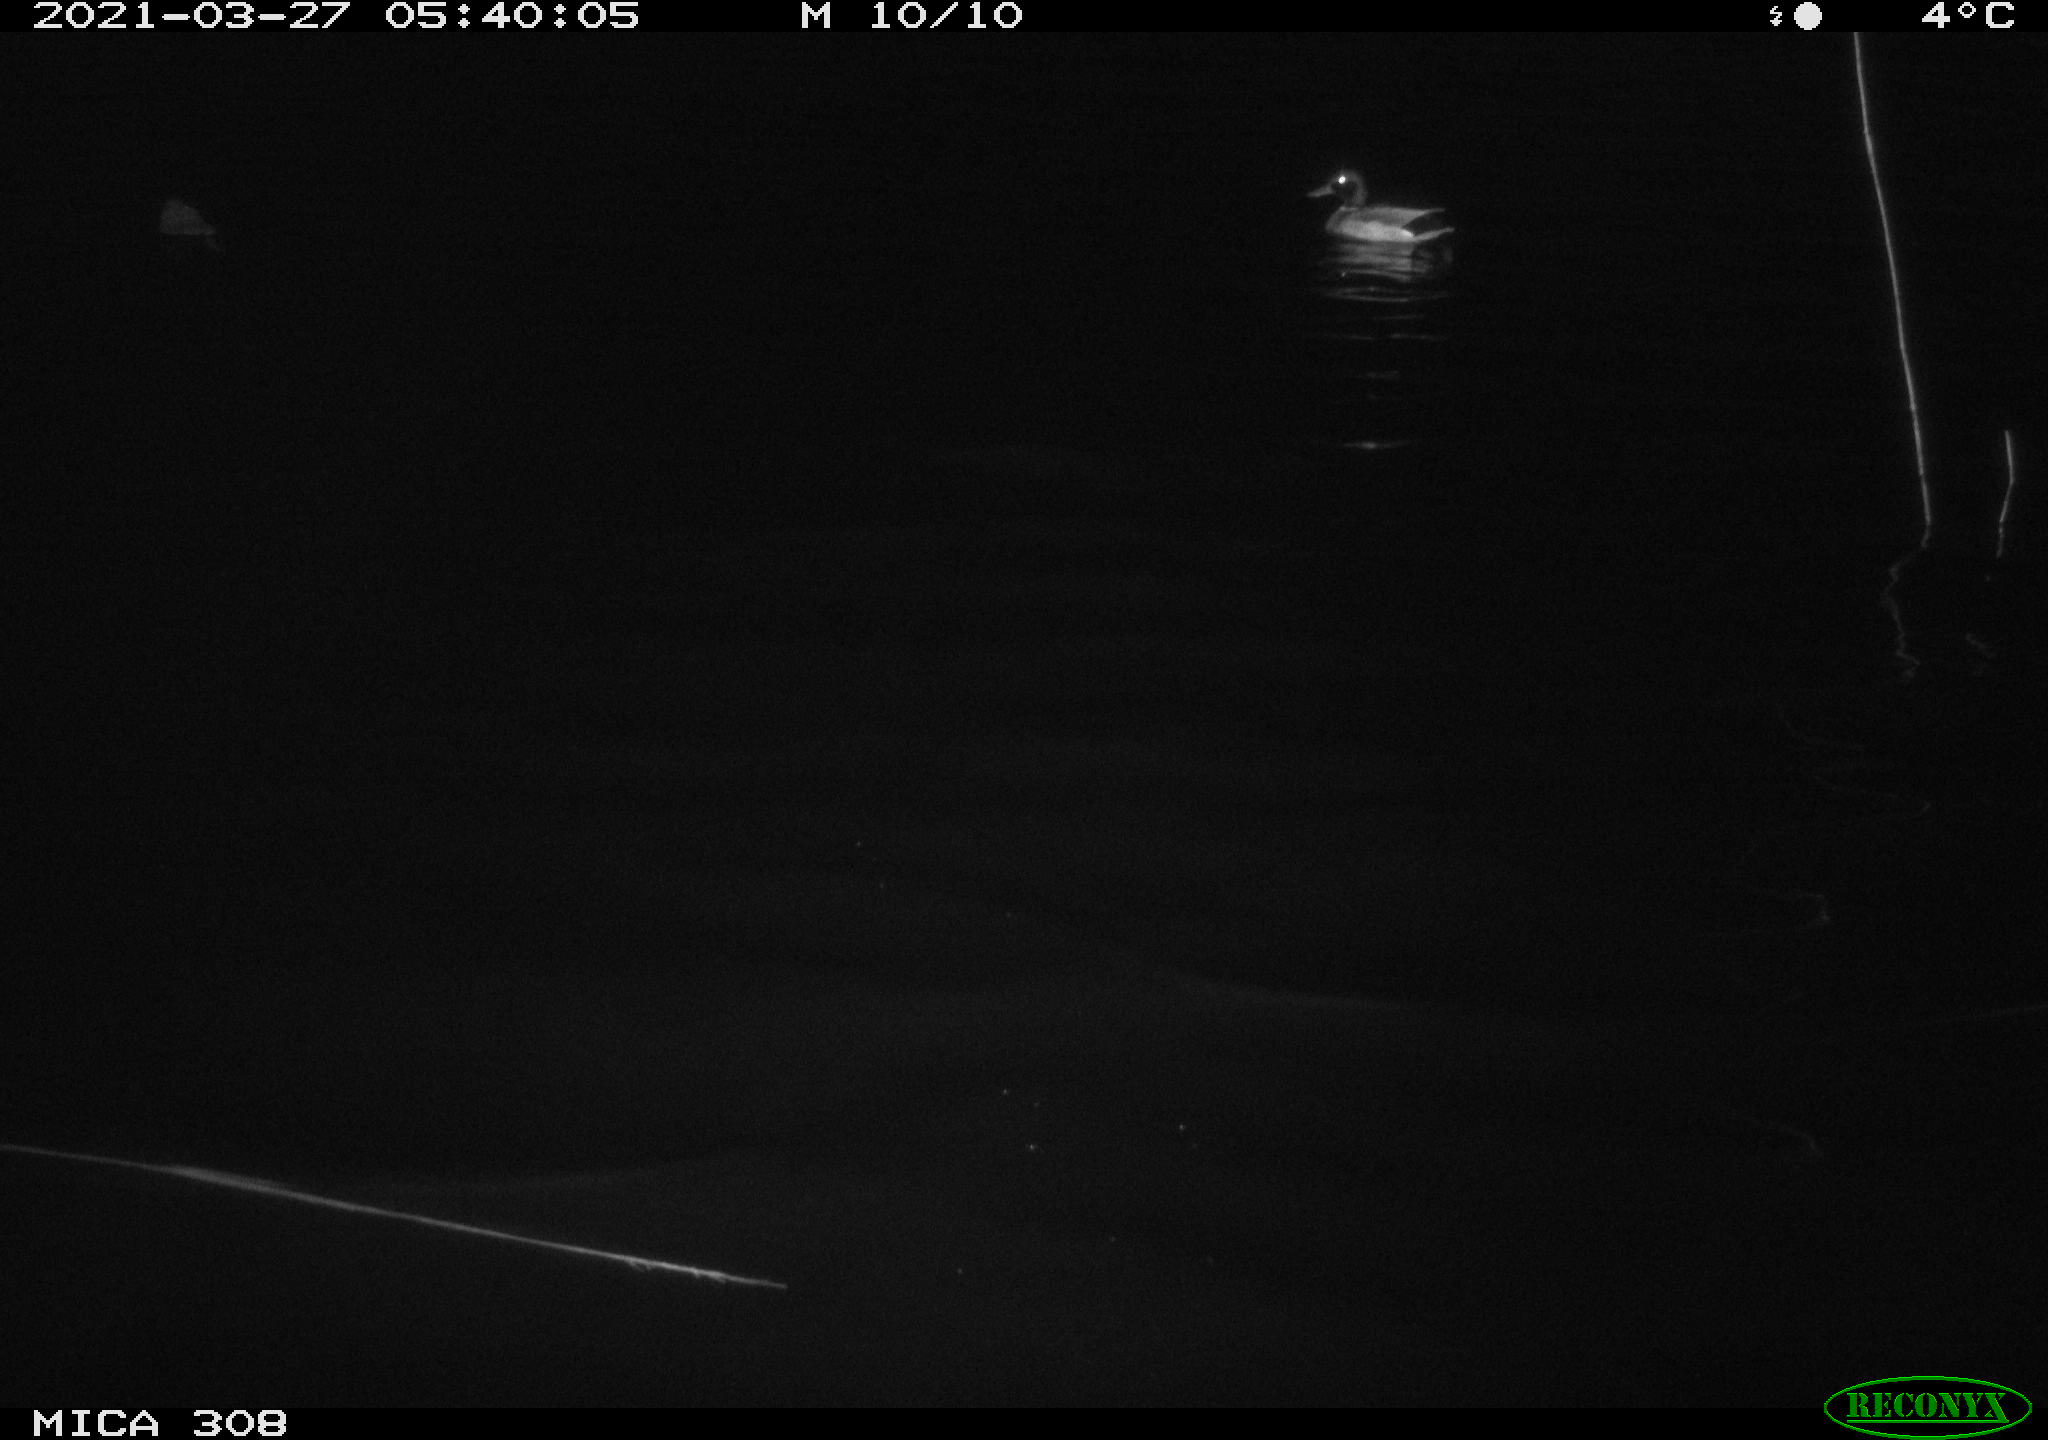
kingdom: Animalia
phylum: Chordata
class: Aves
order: Anseriformes
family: Anatidae
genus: Anas
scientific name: Anas platyrhynchos
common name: Mallard
